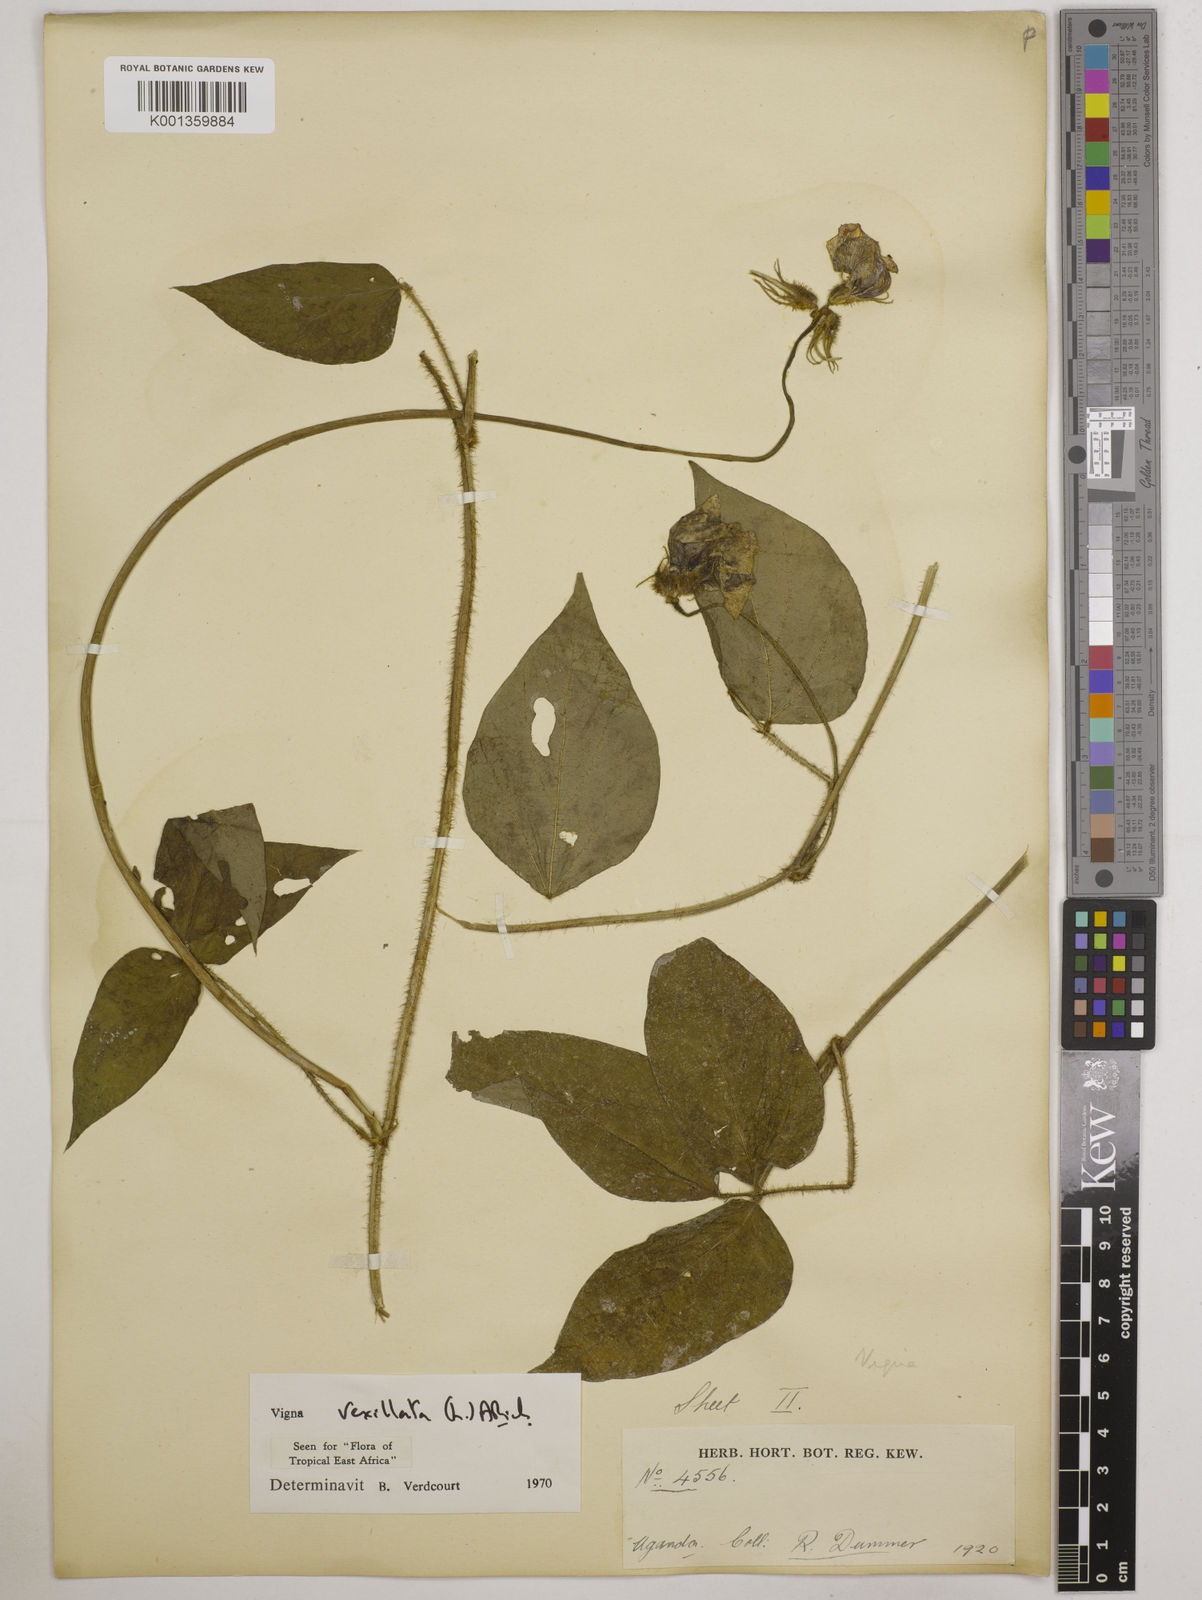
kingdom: Plantae
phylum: Tracheophyta
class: Magnoliopsida
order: Fabales
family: Fabaceae
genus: Vigna
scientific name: Vigna vexillata
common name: Zombi pea
